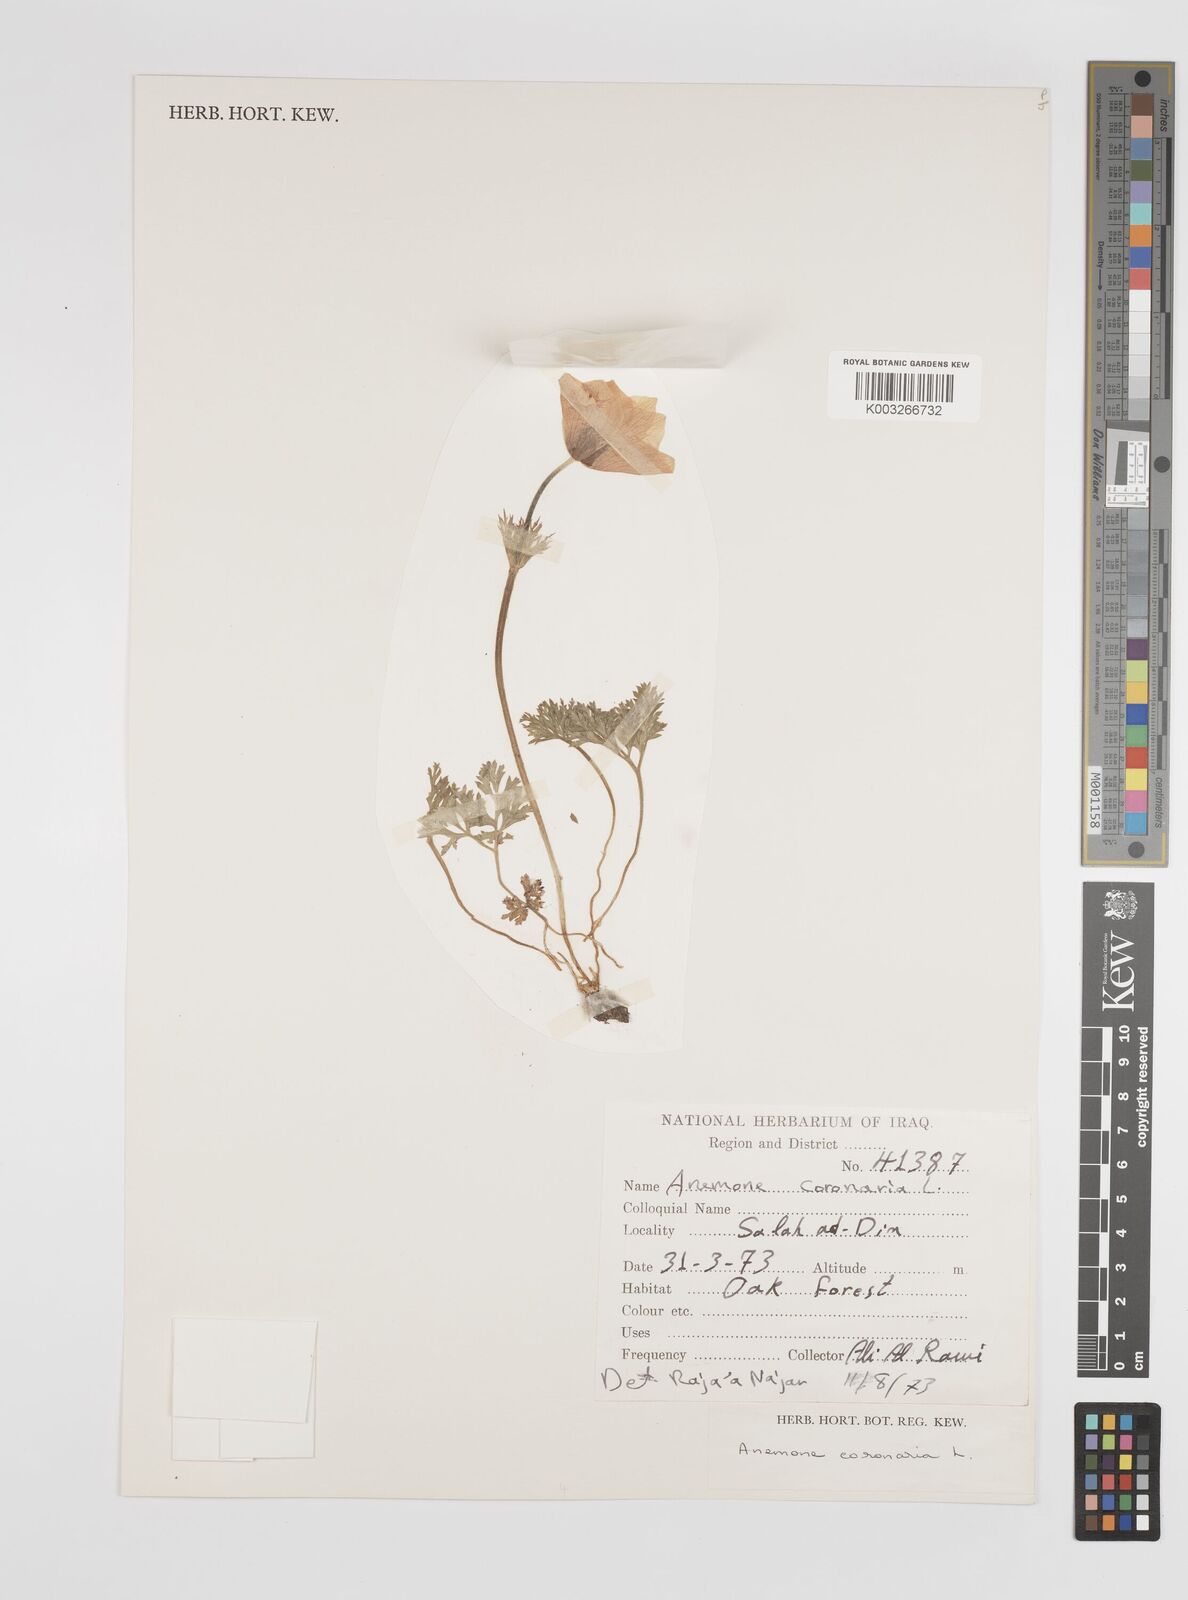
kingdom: Plantae
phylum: Tracheophyta
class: Magnoliopsida
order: Ranunculales
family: Ranunculaceae
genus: Anemone
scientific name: Anemone coronaria
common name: Poppy anemone
